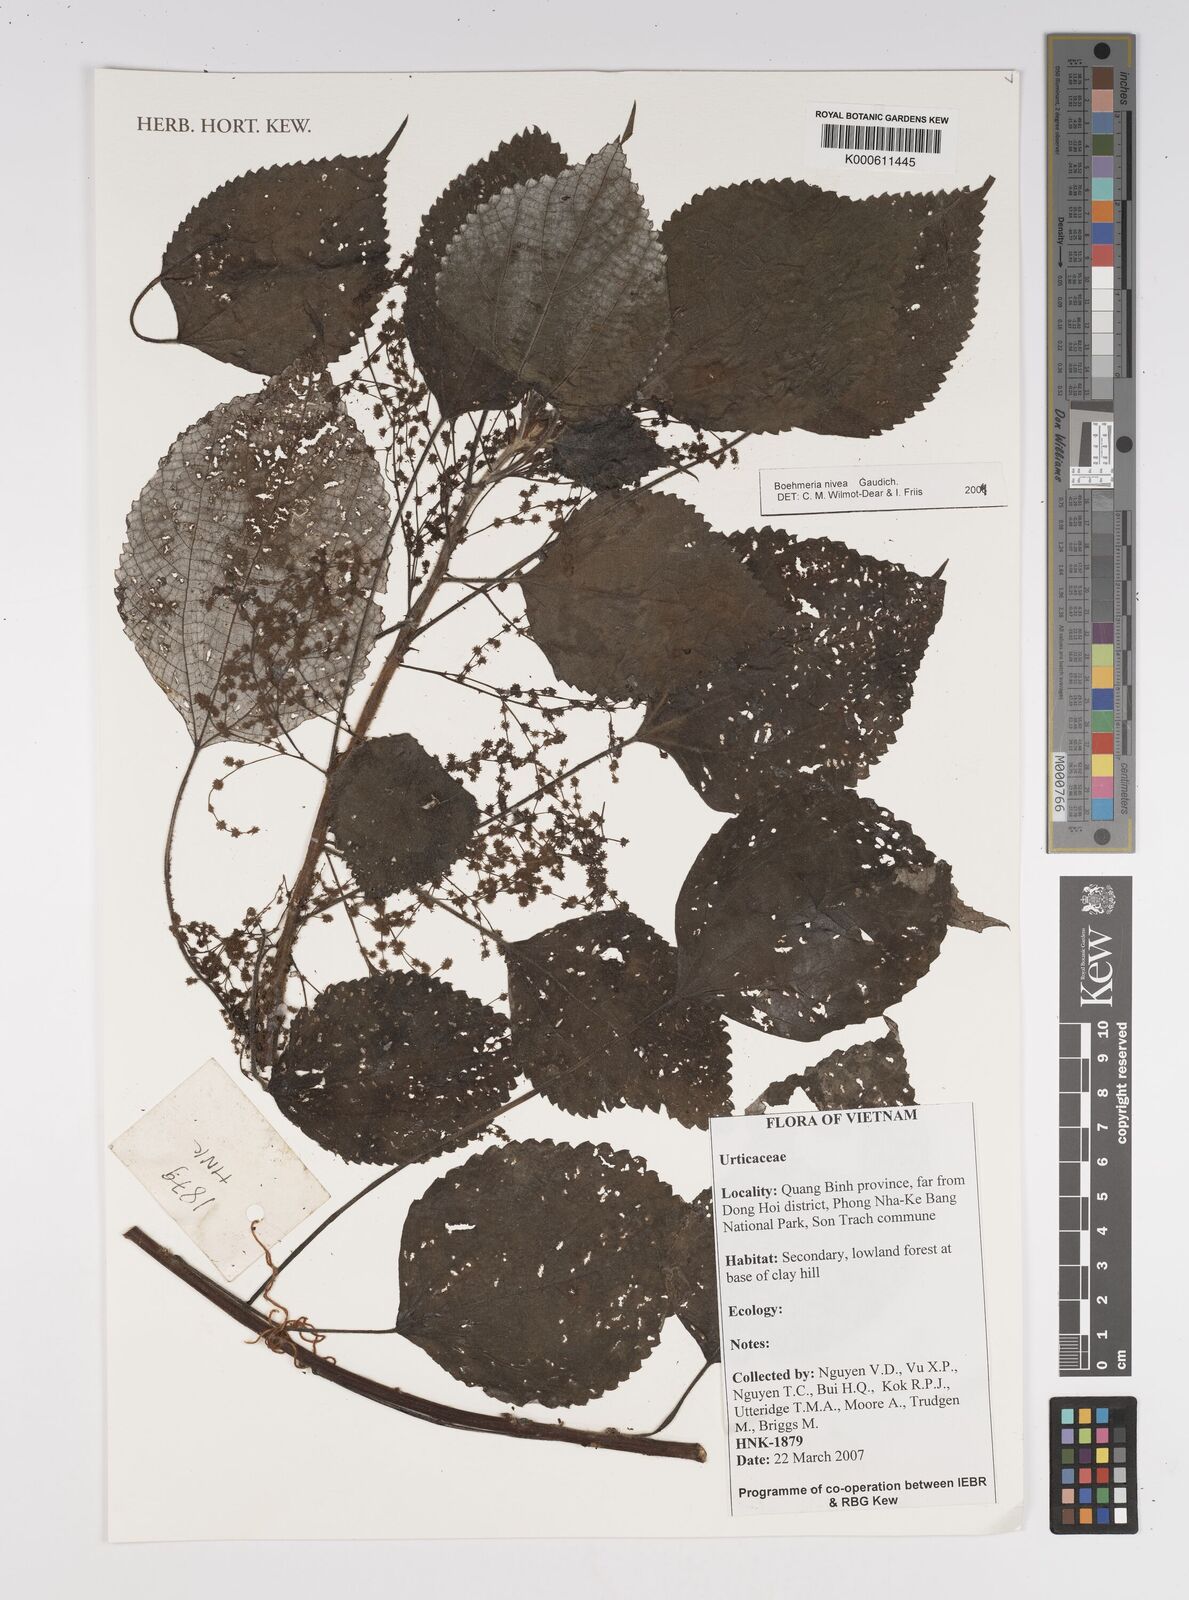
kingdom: Plantae
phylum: Tracheophyta
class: Magnoliopsida
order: Rosales
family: Urticaceae
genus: Boehmeria
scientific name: Boehmeria nivea
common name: Ramie chinese grass
